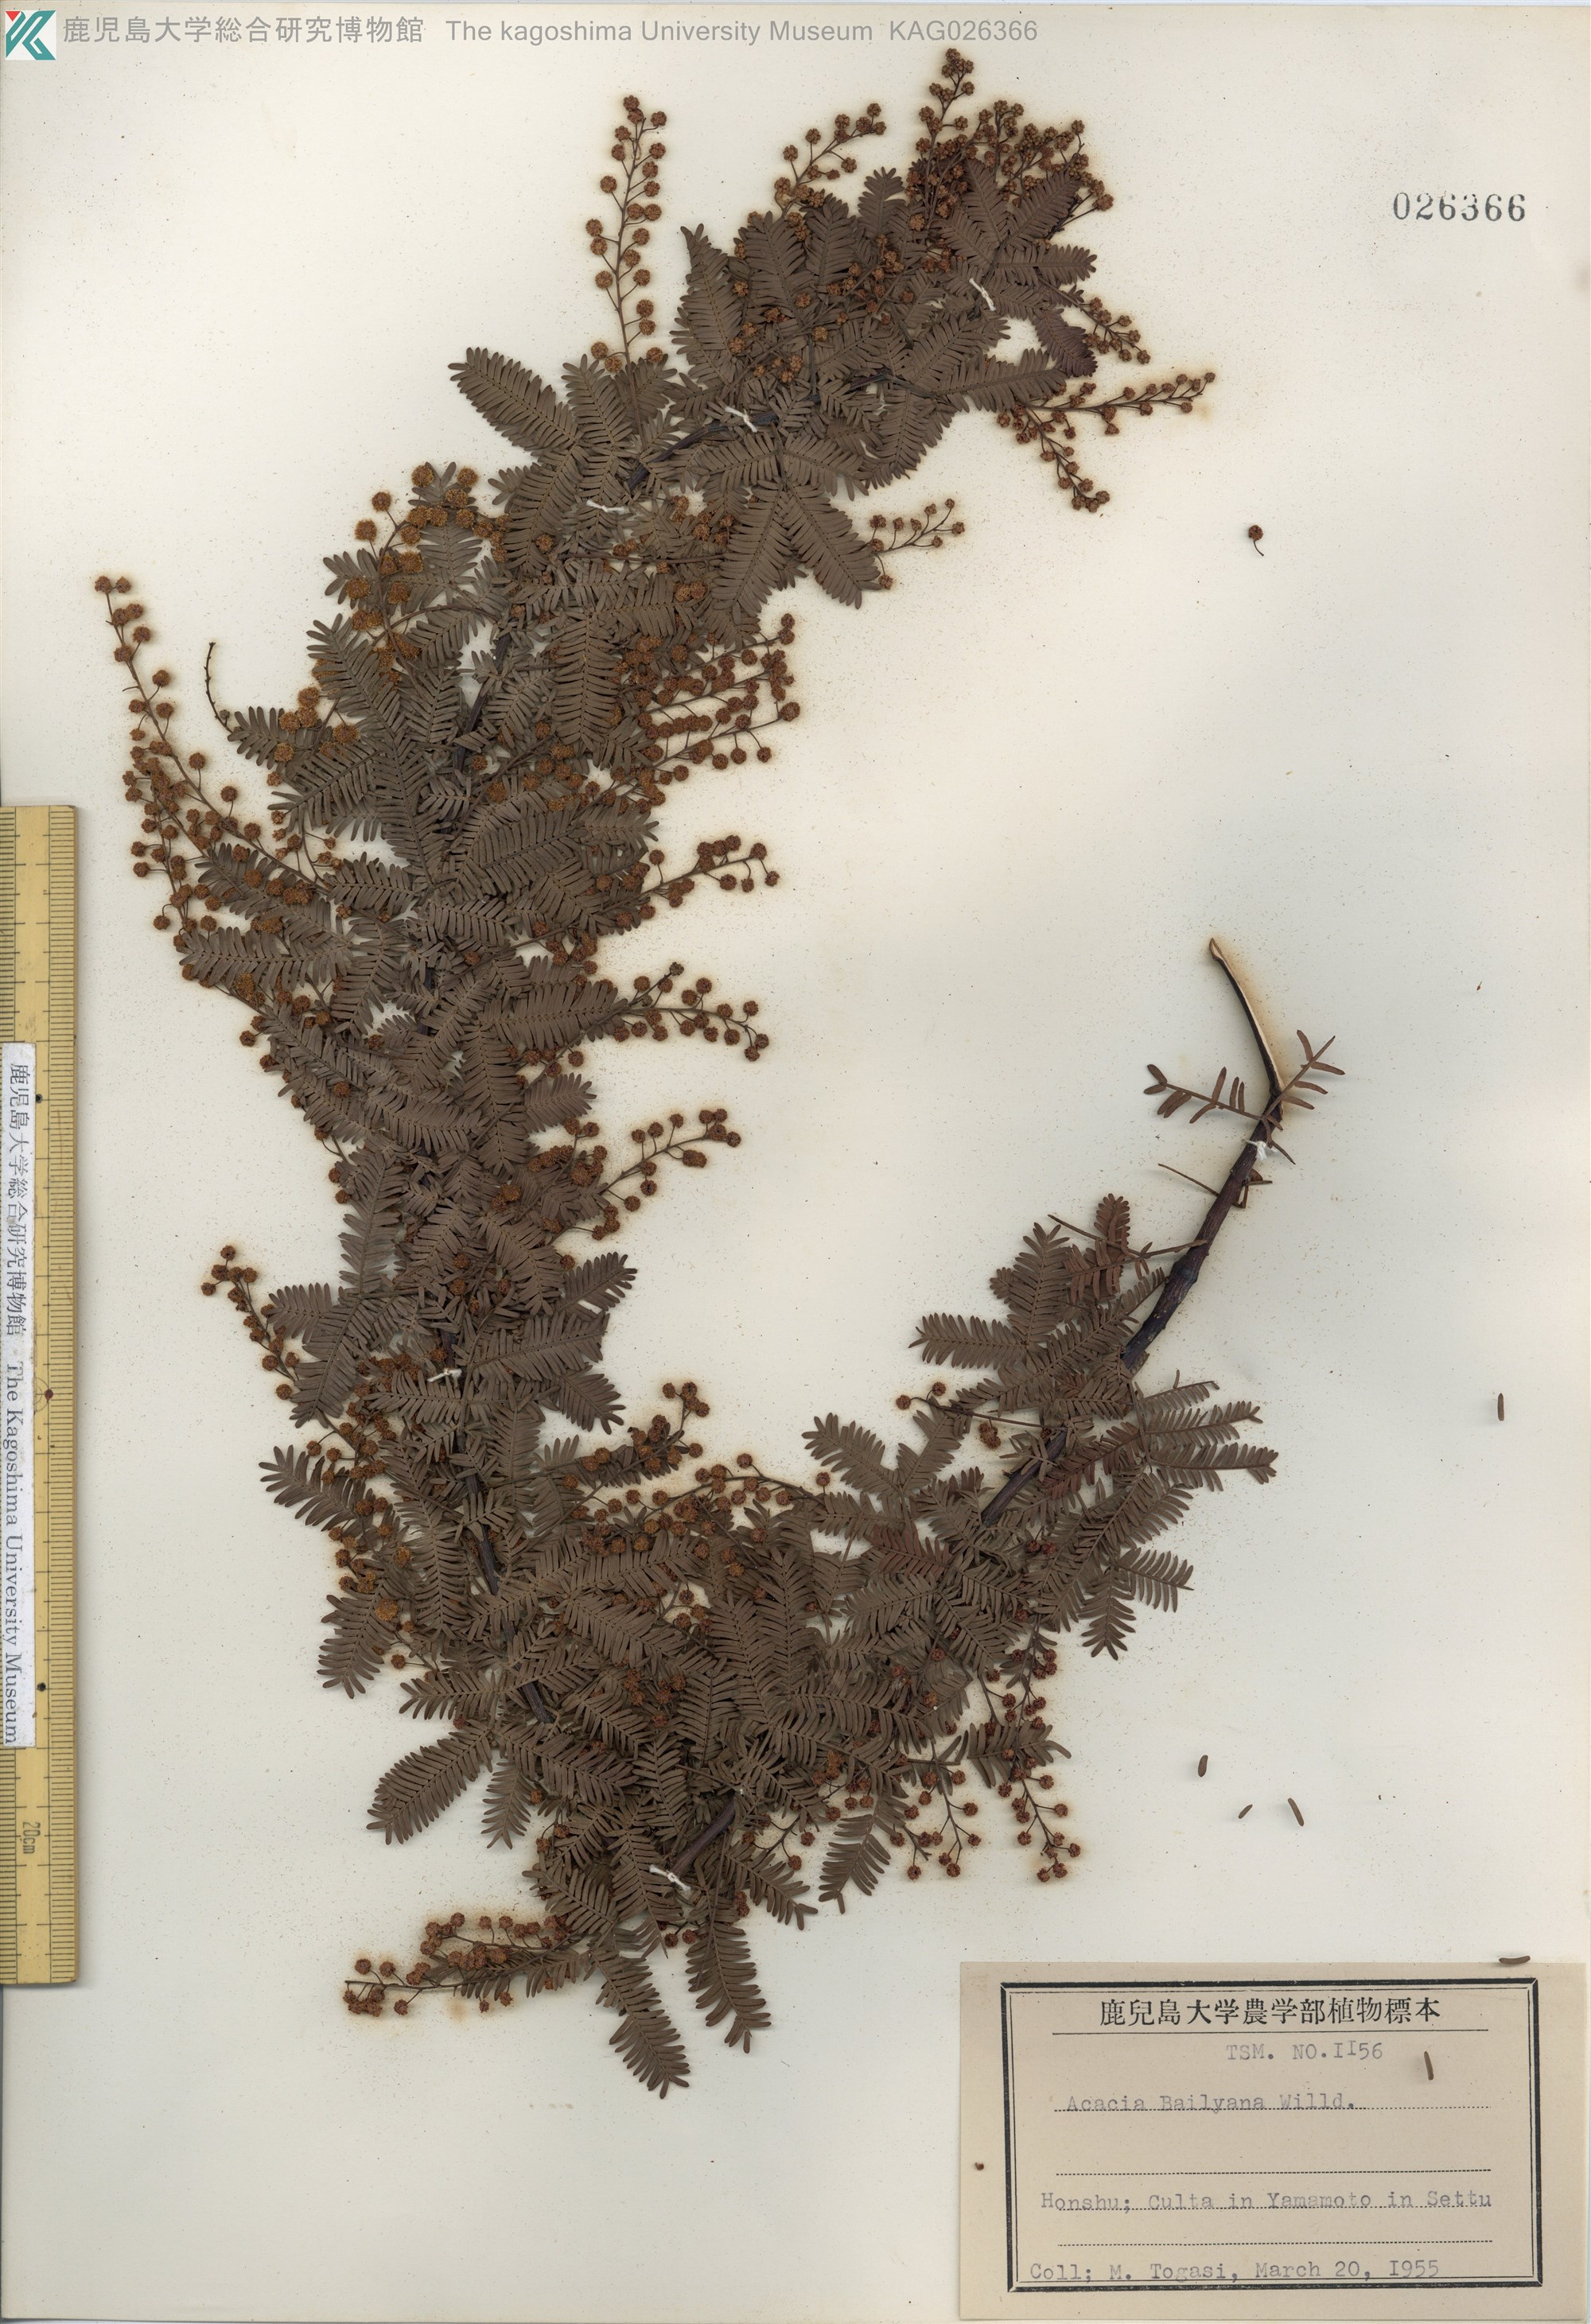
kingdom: Plantae
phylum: Tracheophyta
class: Magnoliopsida
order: Fabales
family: Fabaceae
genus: Acacia
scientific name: Acacia baileyana
